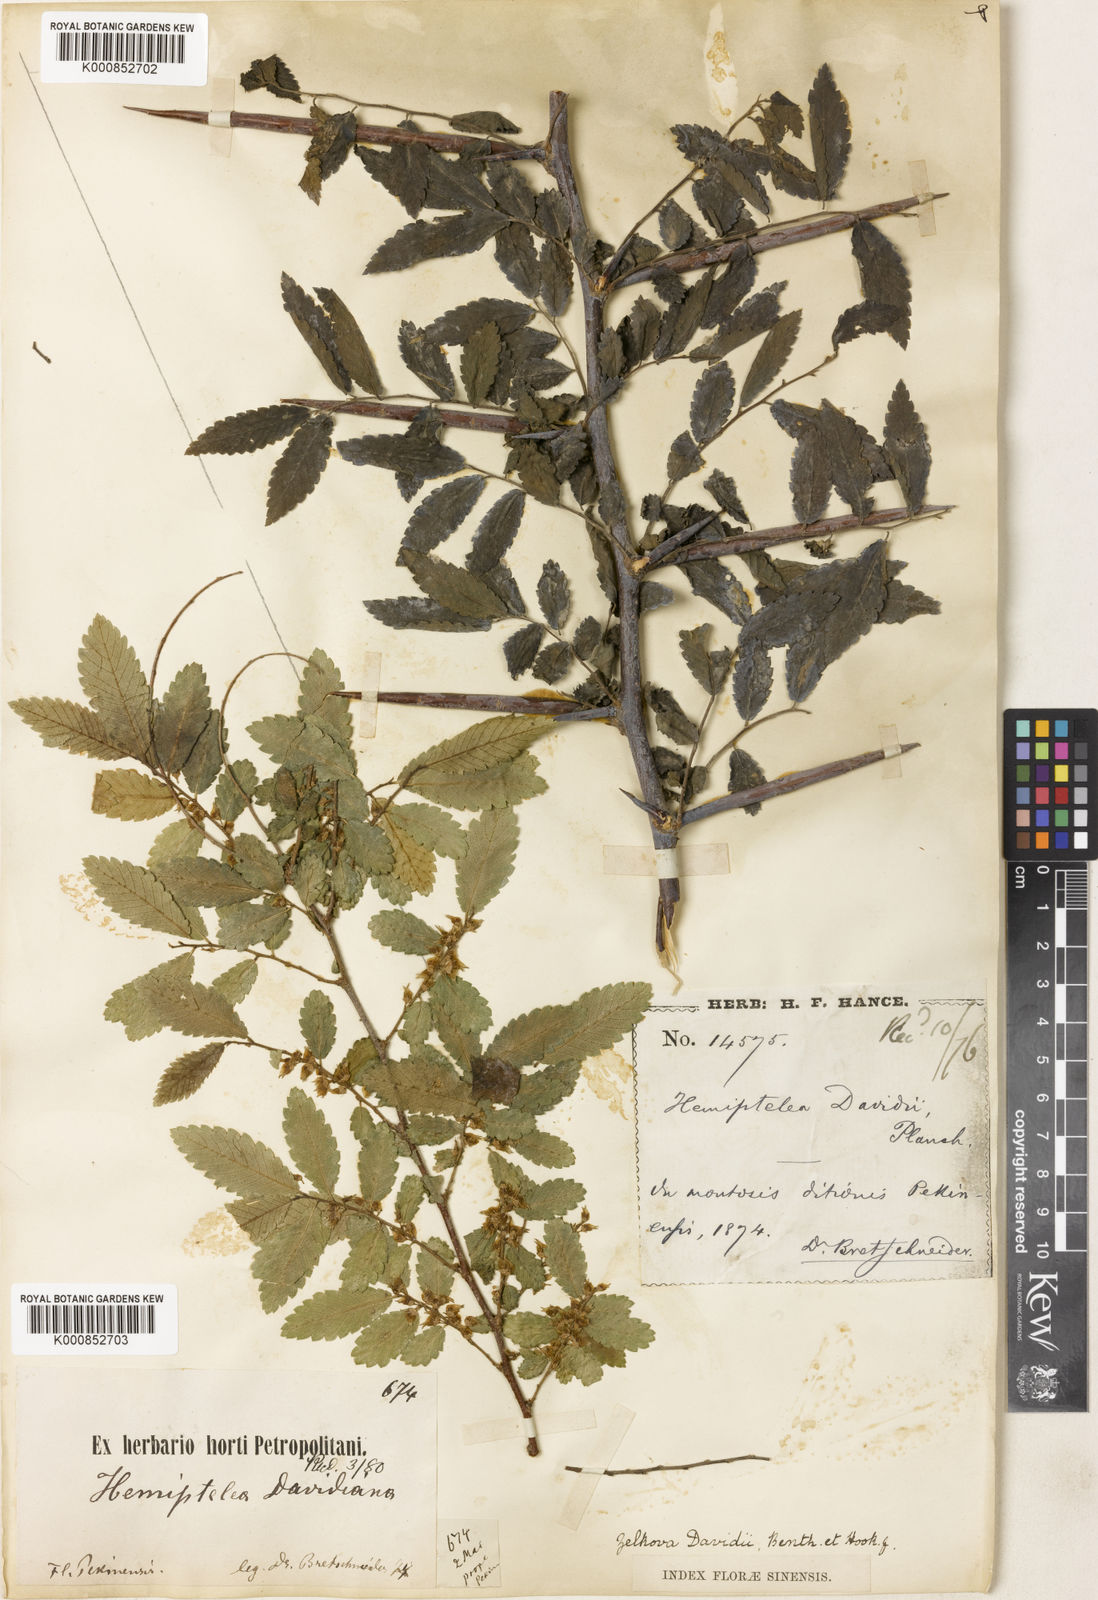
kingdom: Plantae
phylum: Tracheophyta
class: Magnoliopsida
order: Rosales
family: Ulmaceae
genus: Hemiptelea
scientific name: Hemiptelea davidii
